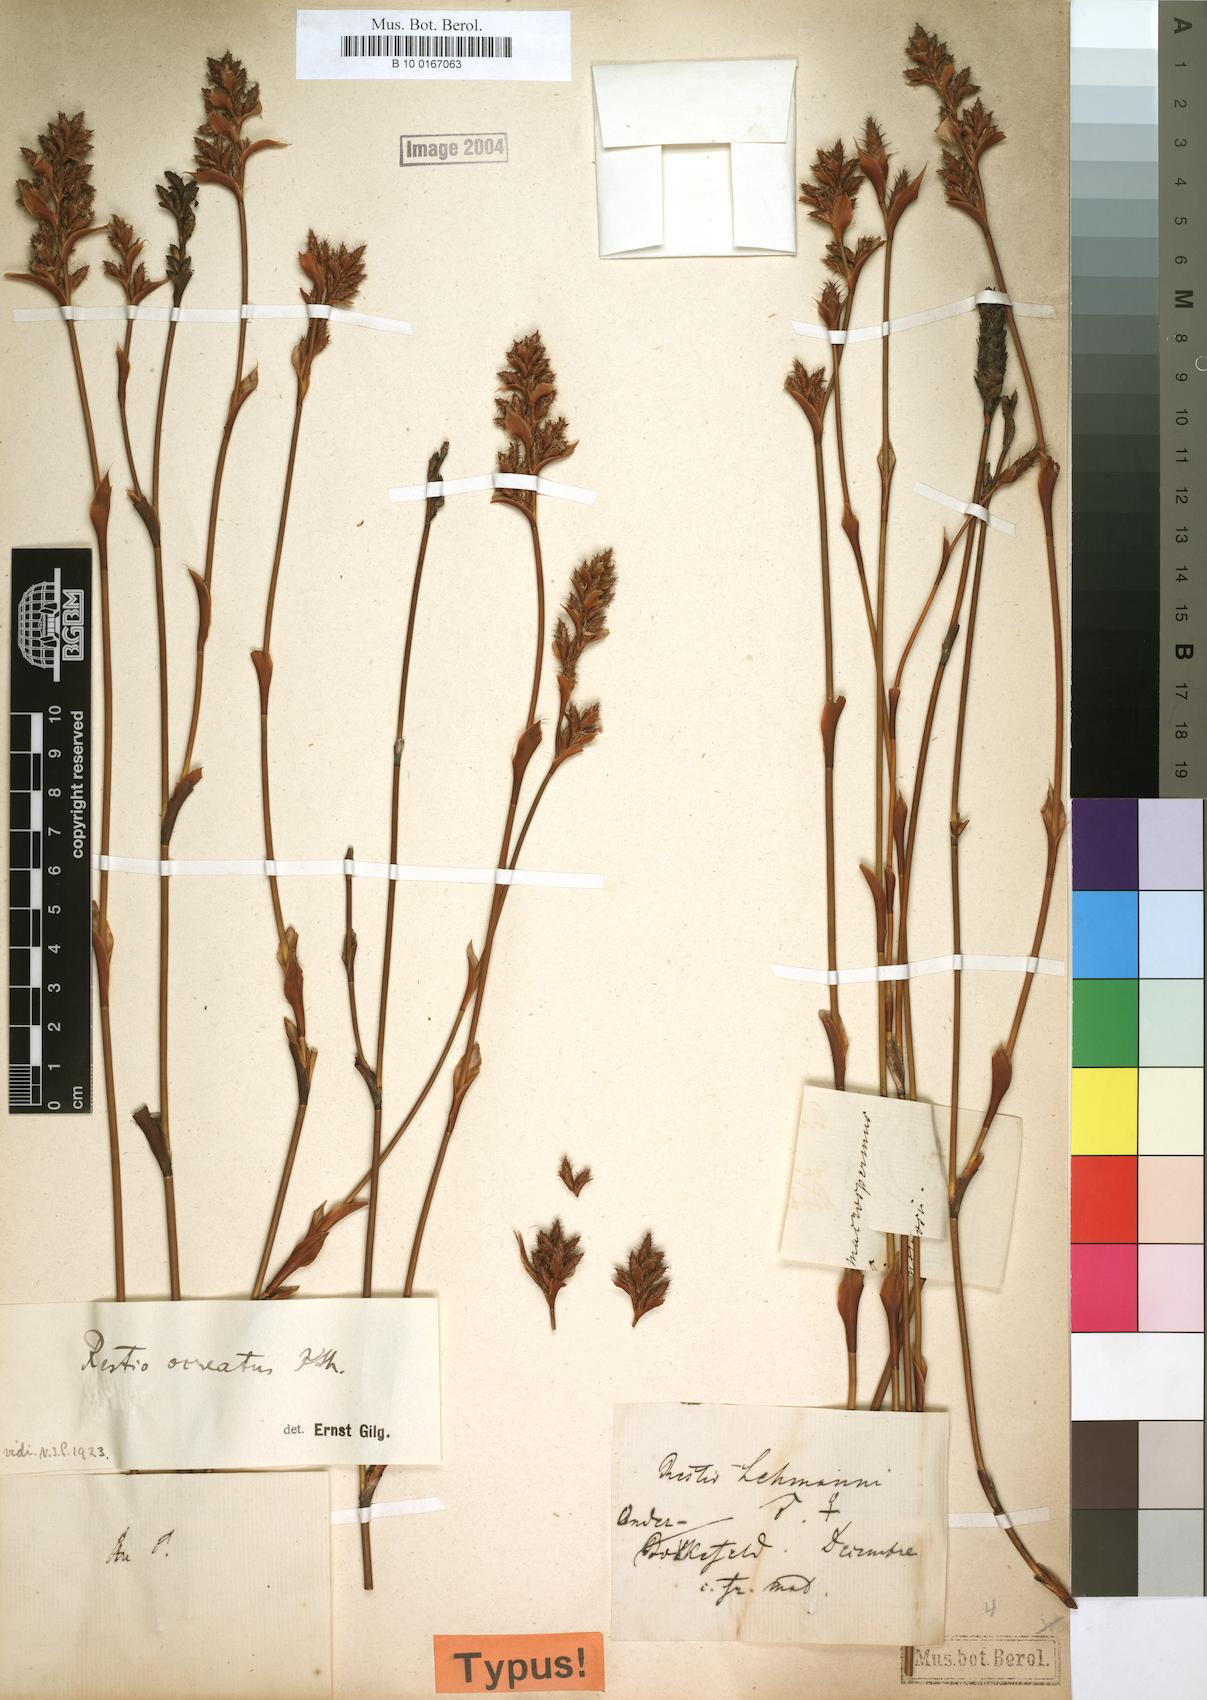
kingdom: Plantae
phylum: Tracheophyta
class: Liliopsida
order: Poales
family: Restionaceae
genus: Restio
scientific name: Restio ocreatus
